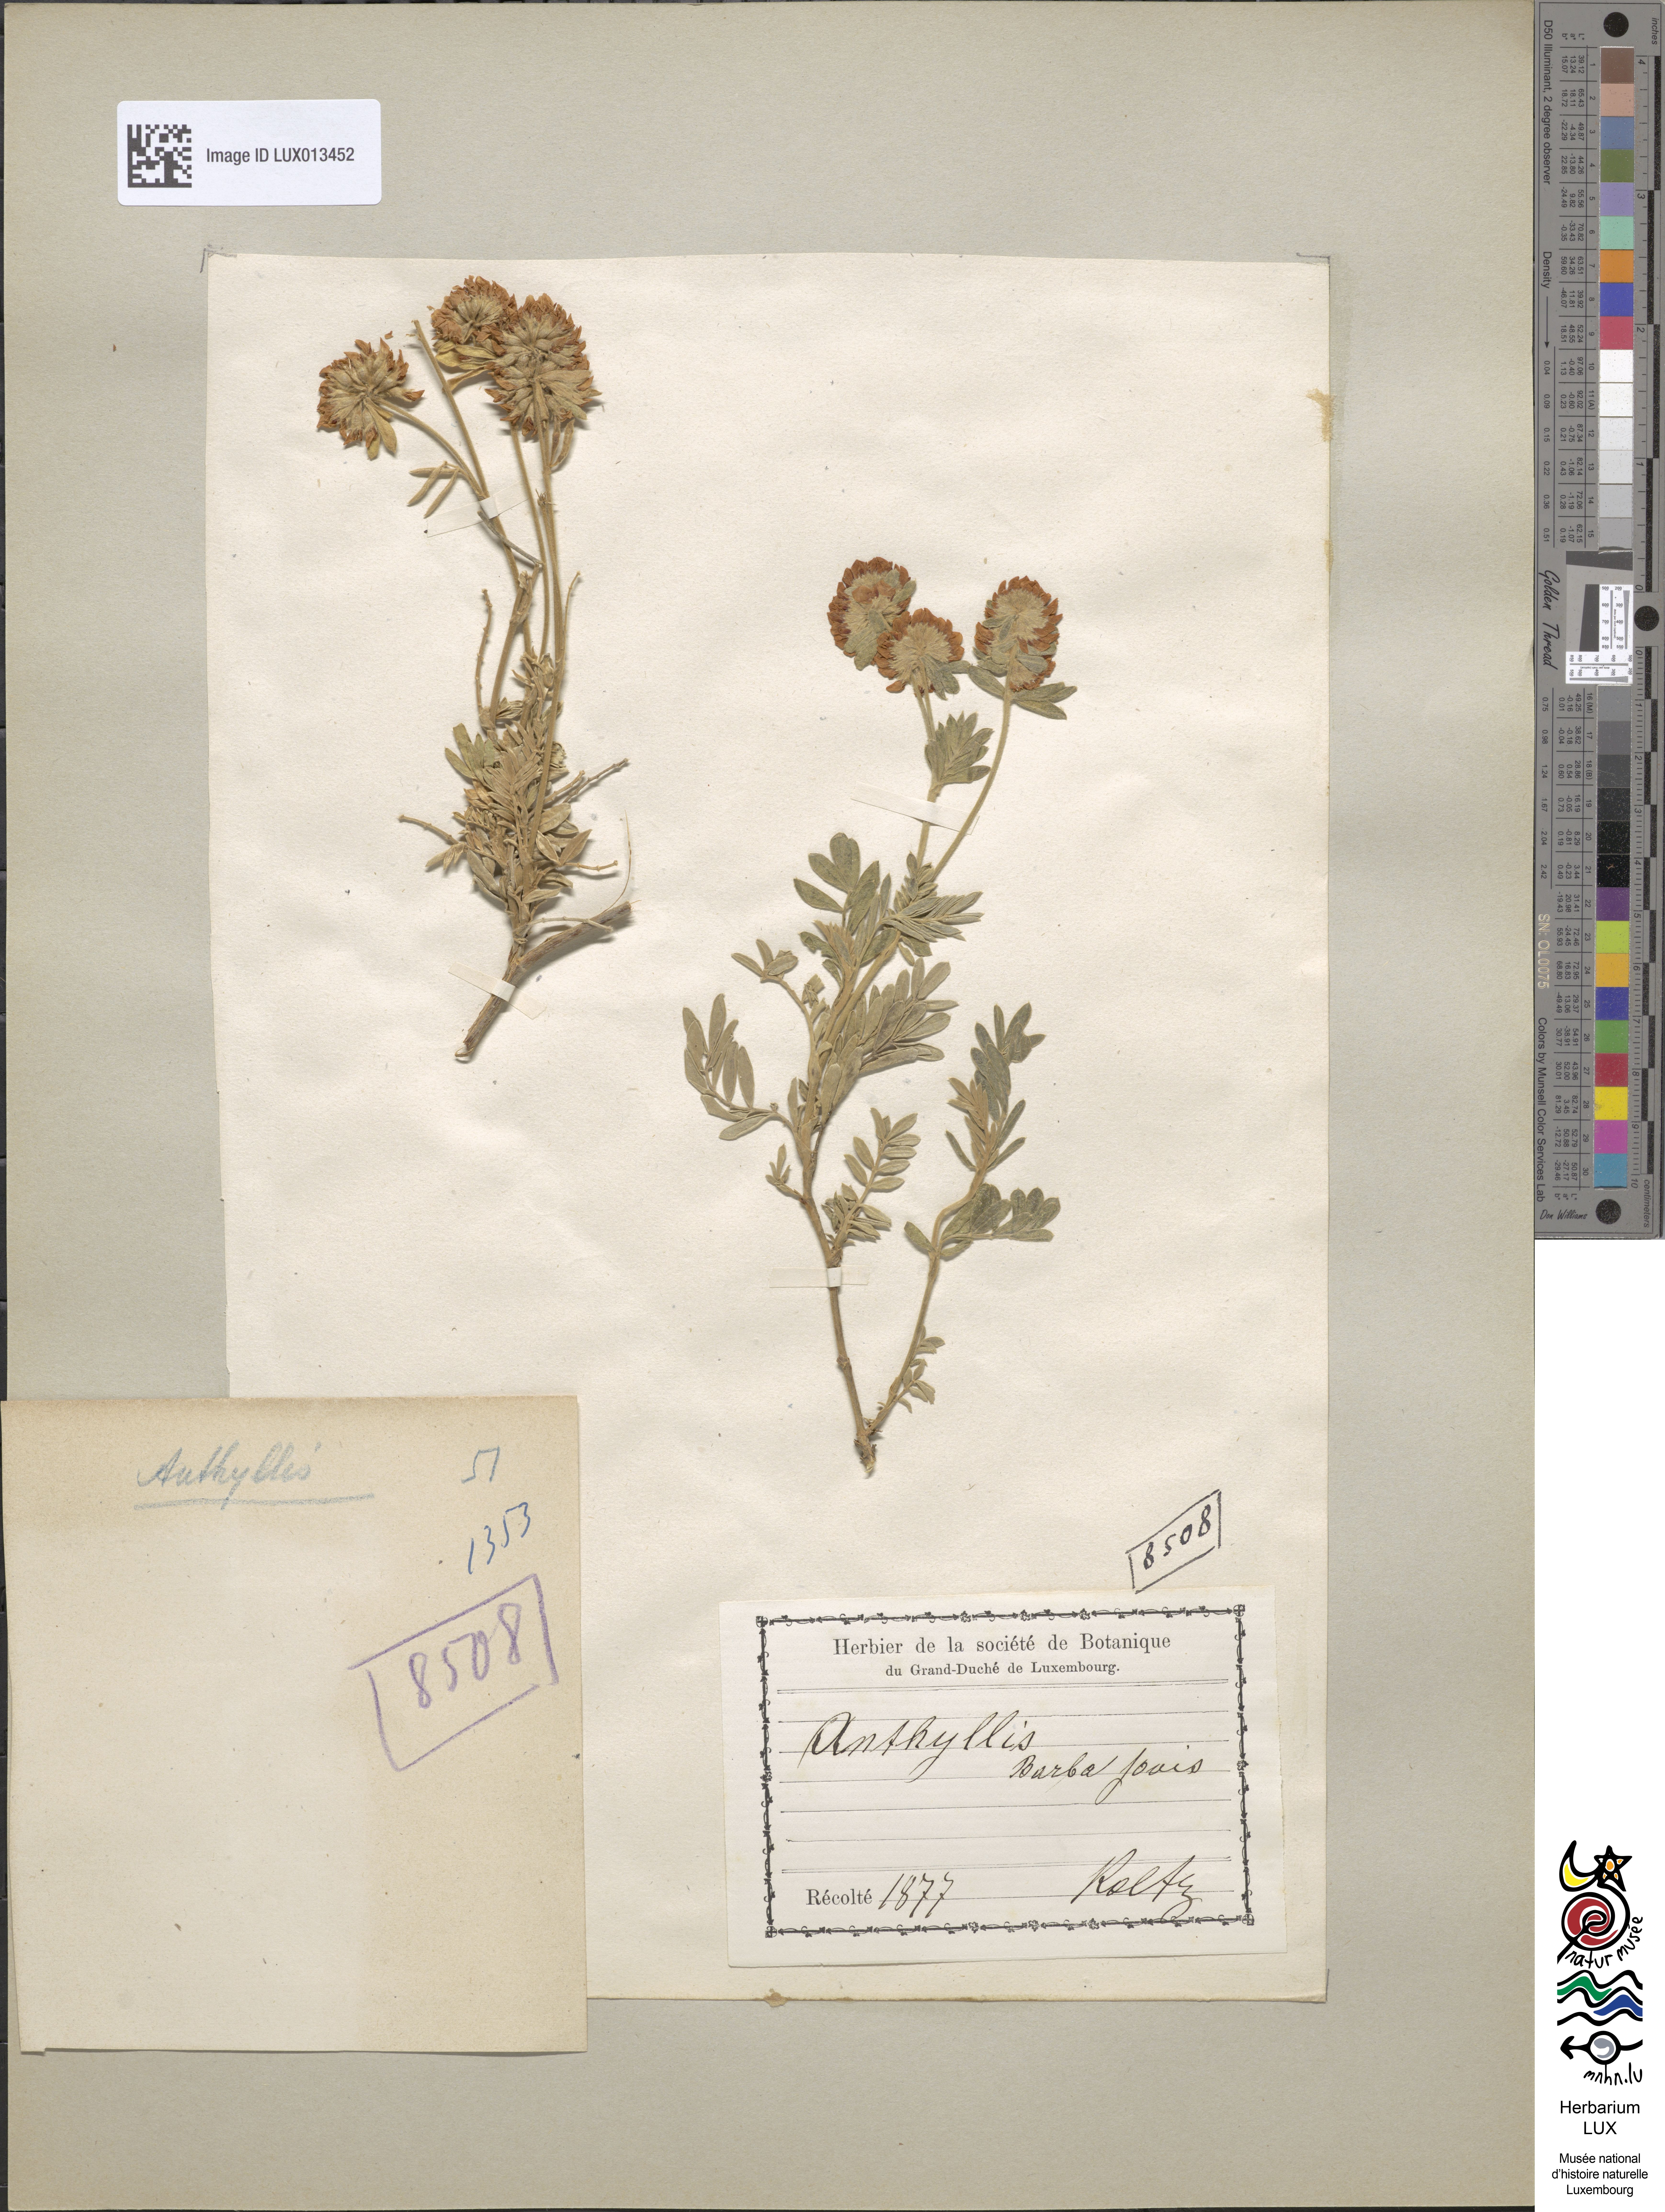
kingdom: Plantae
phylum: Tracheophyta
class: Magnoliopsida
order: Fabales
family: Fabaceae
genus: Anthyllis
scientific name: Anthyllis barba-jovis
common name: Jupiter's-beard
